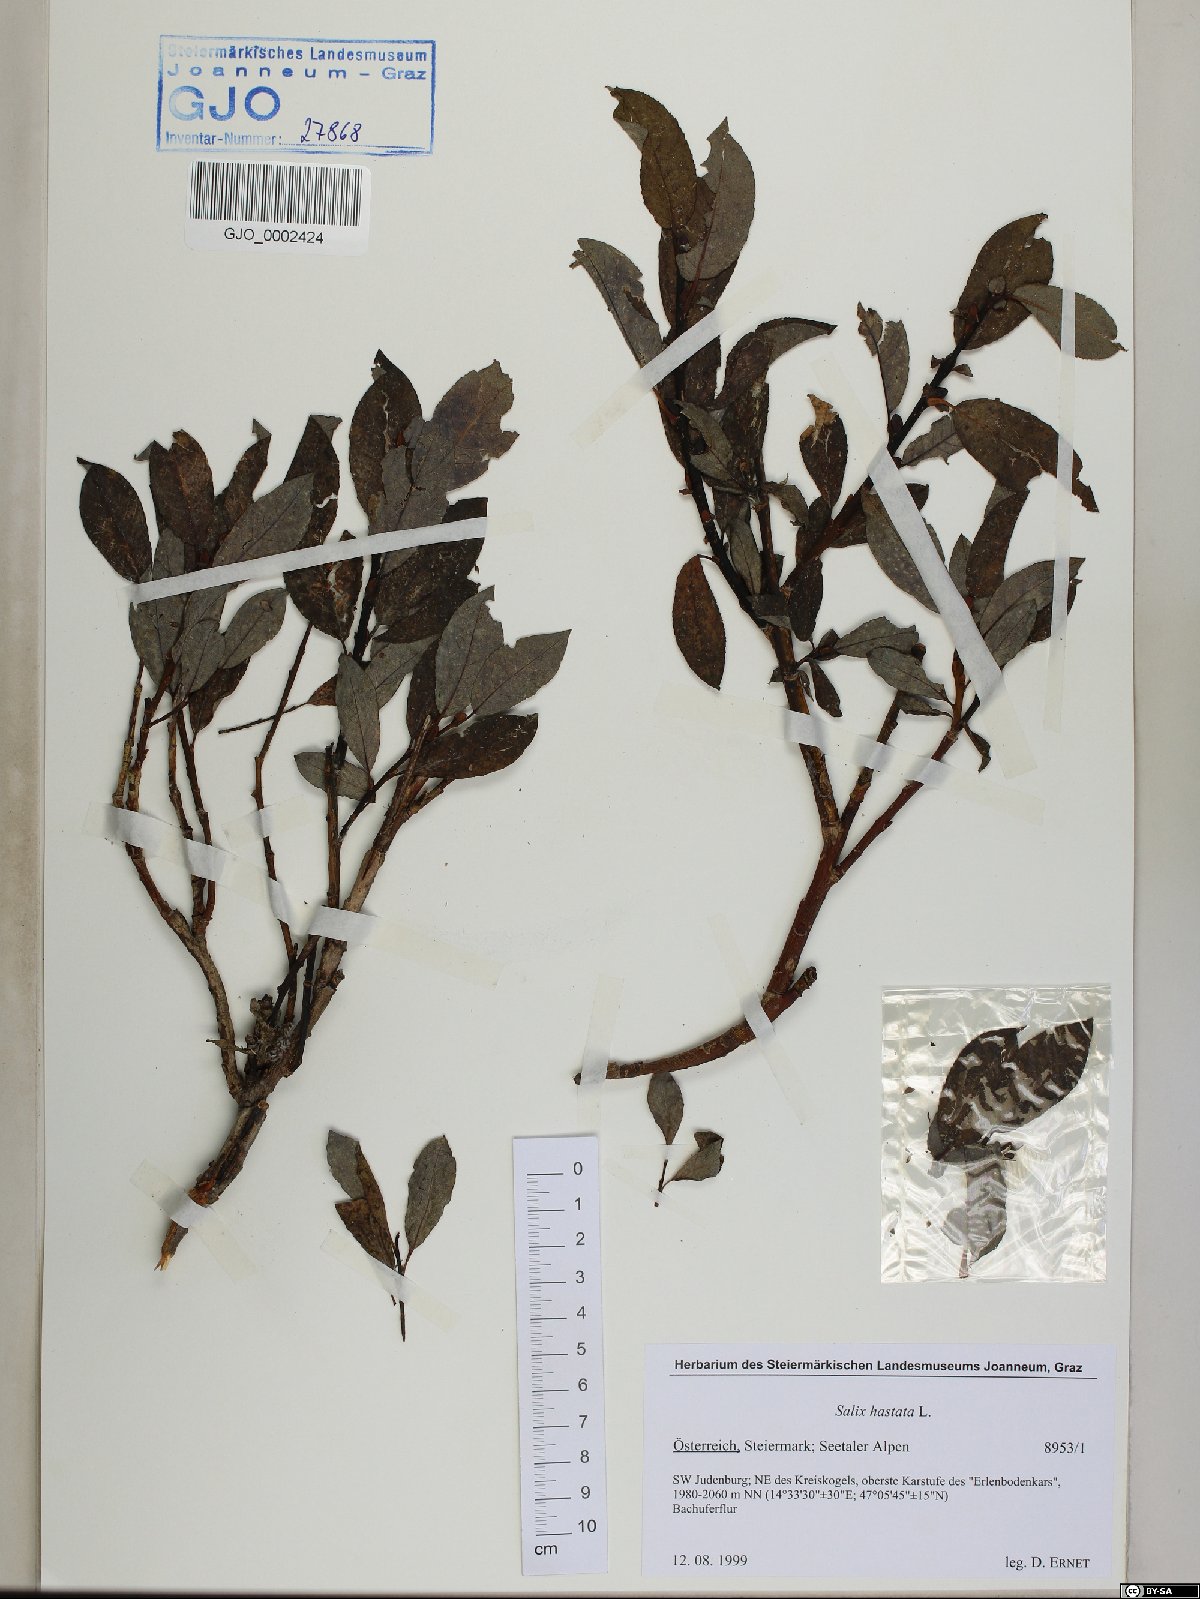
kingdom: Plantae
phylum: Tracheophyta
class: Magnoliopsida
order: Malpighiales
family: Salicaceae
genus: Salix
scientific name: Salix hastata
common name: Halberd willow
